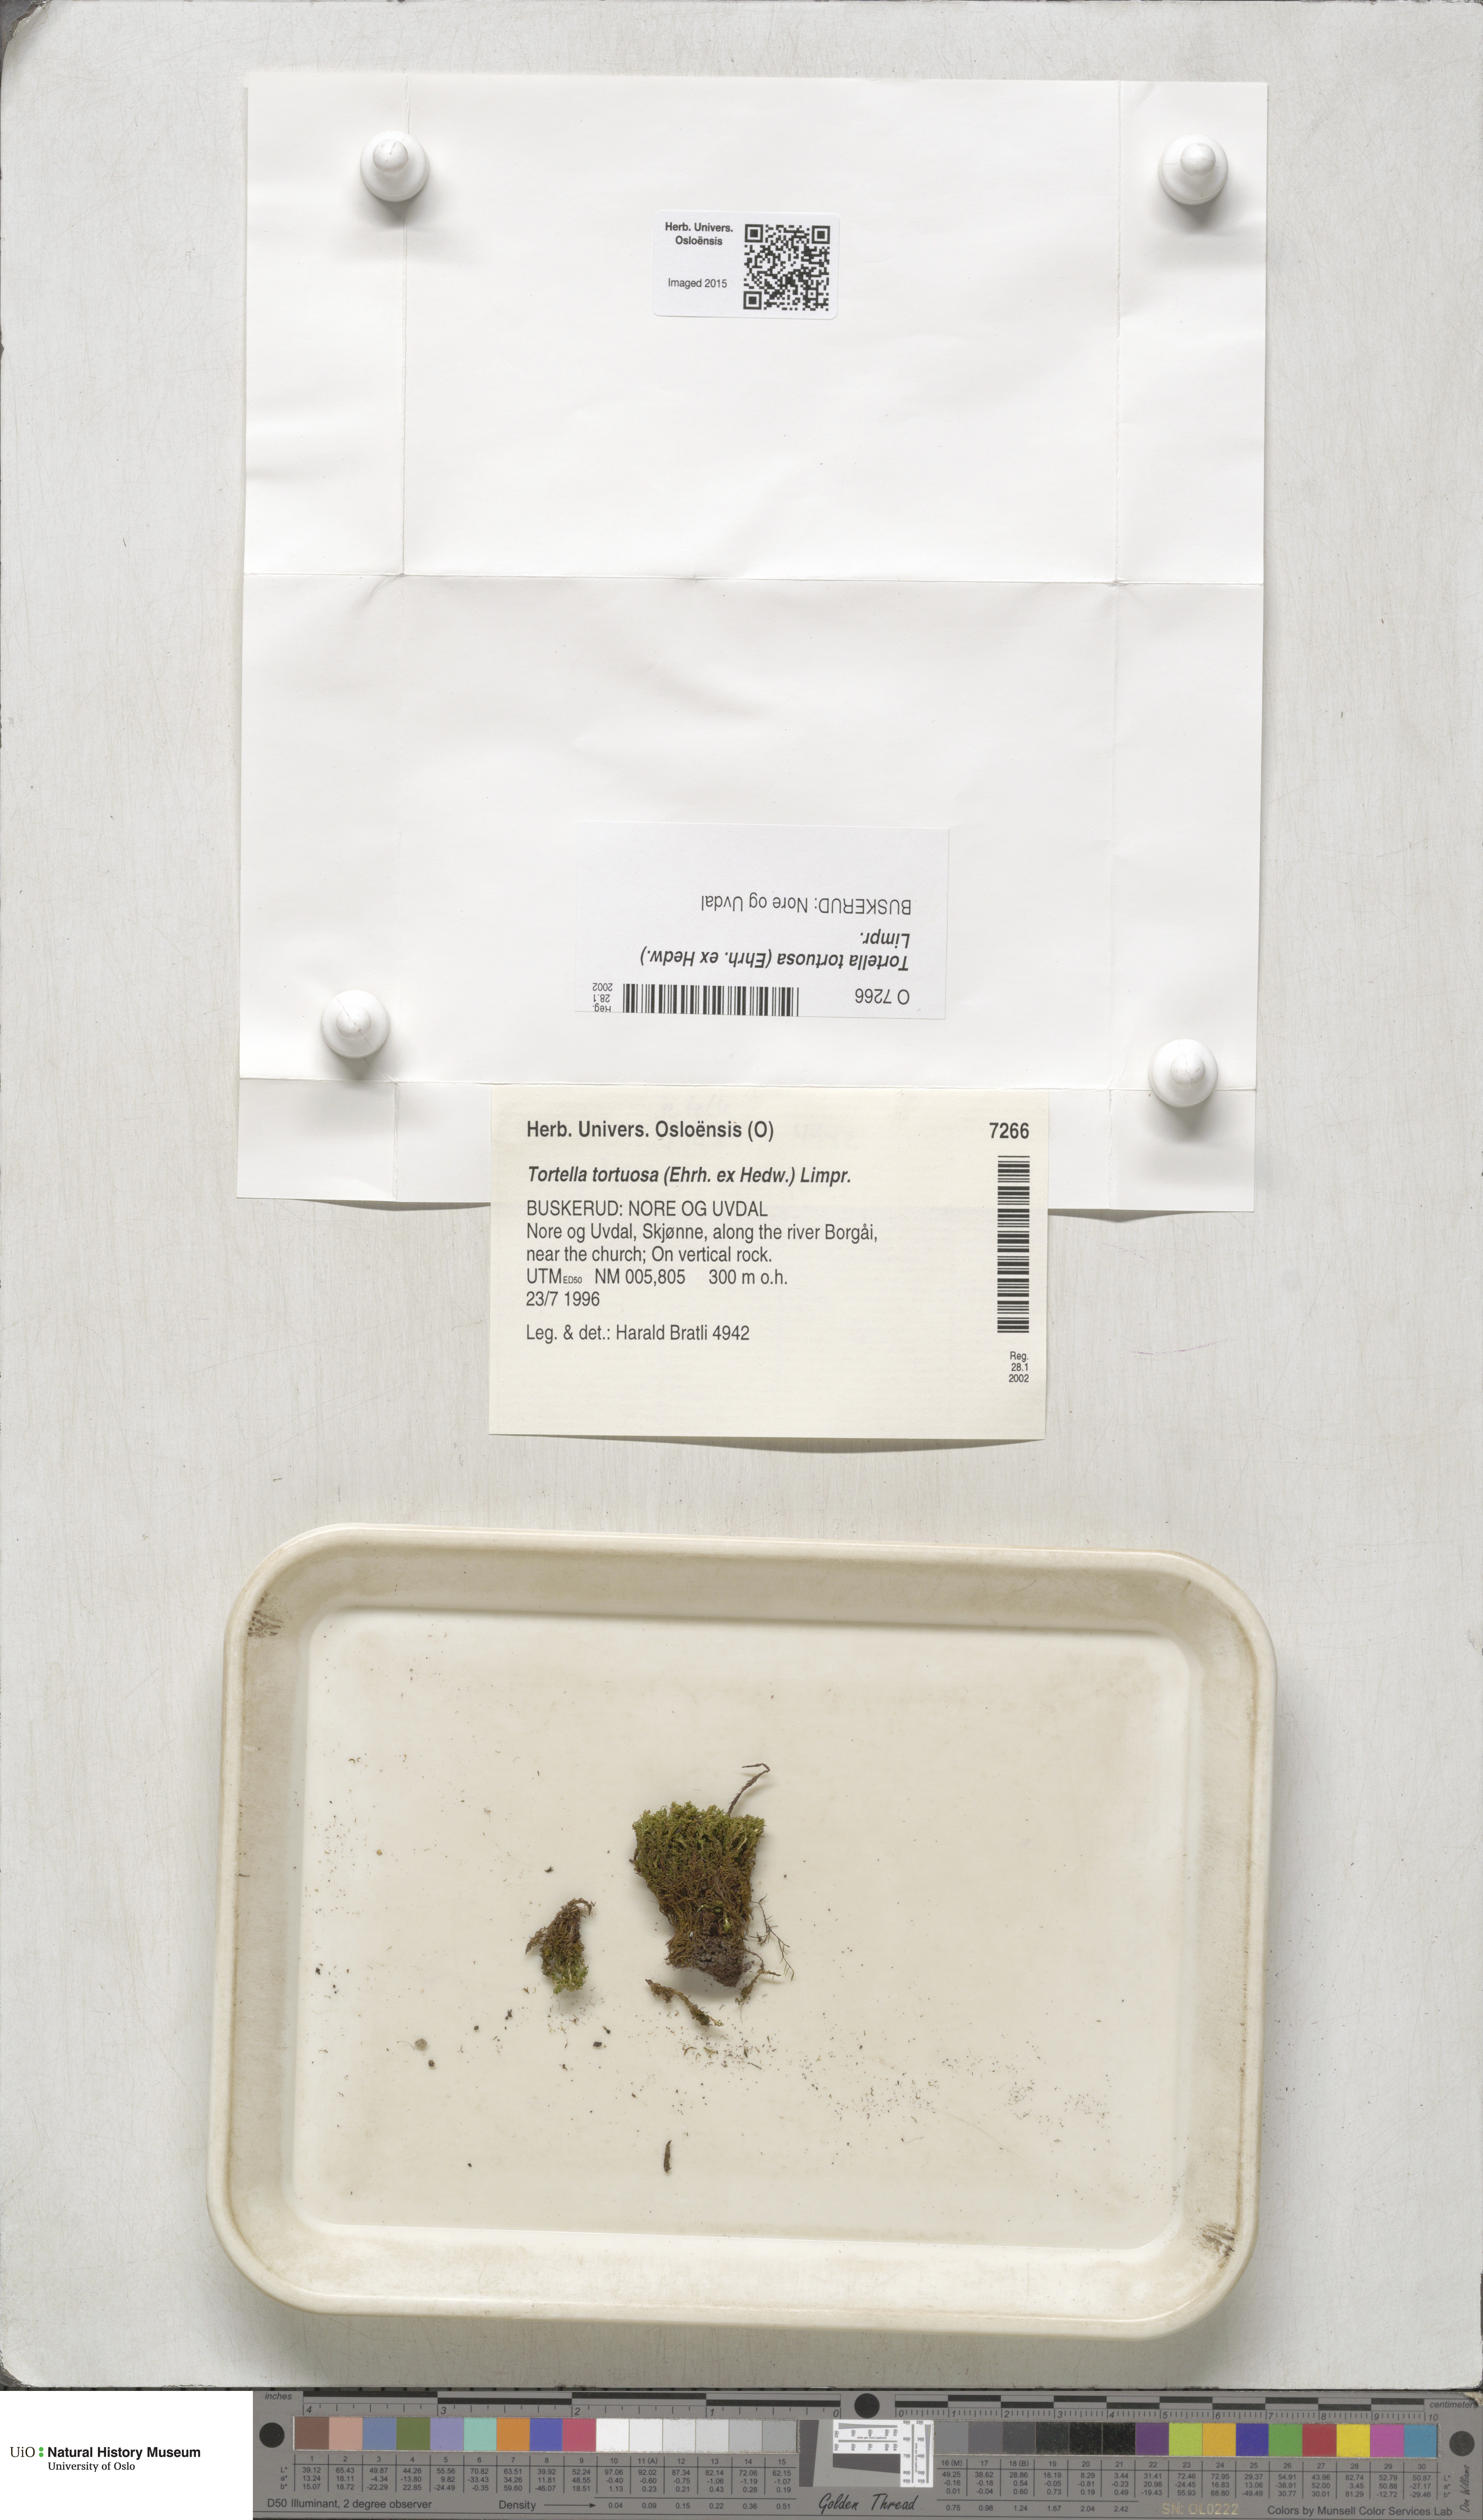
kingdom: Plantae
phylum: Bryophyta
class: Bryopsida
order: Pottiales
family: Pottiaceae
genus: Tortella
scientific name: Tortella tortuosa
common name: Frizzled crisp moss
